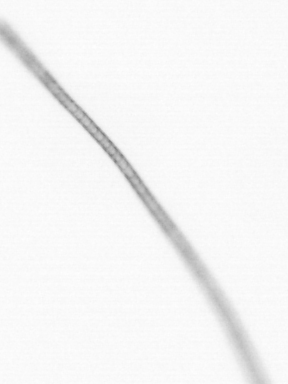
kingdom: Chromista
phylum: Ochrophyta
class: Bacillariophyceae
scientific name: Bacillariophyceae
